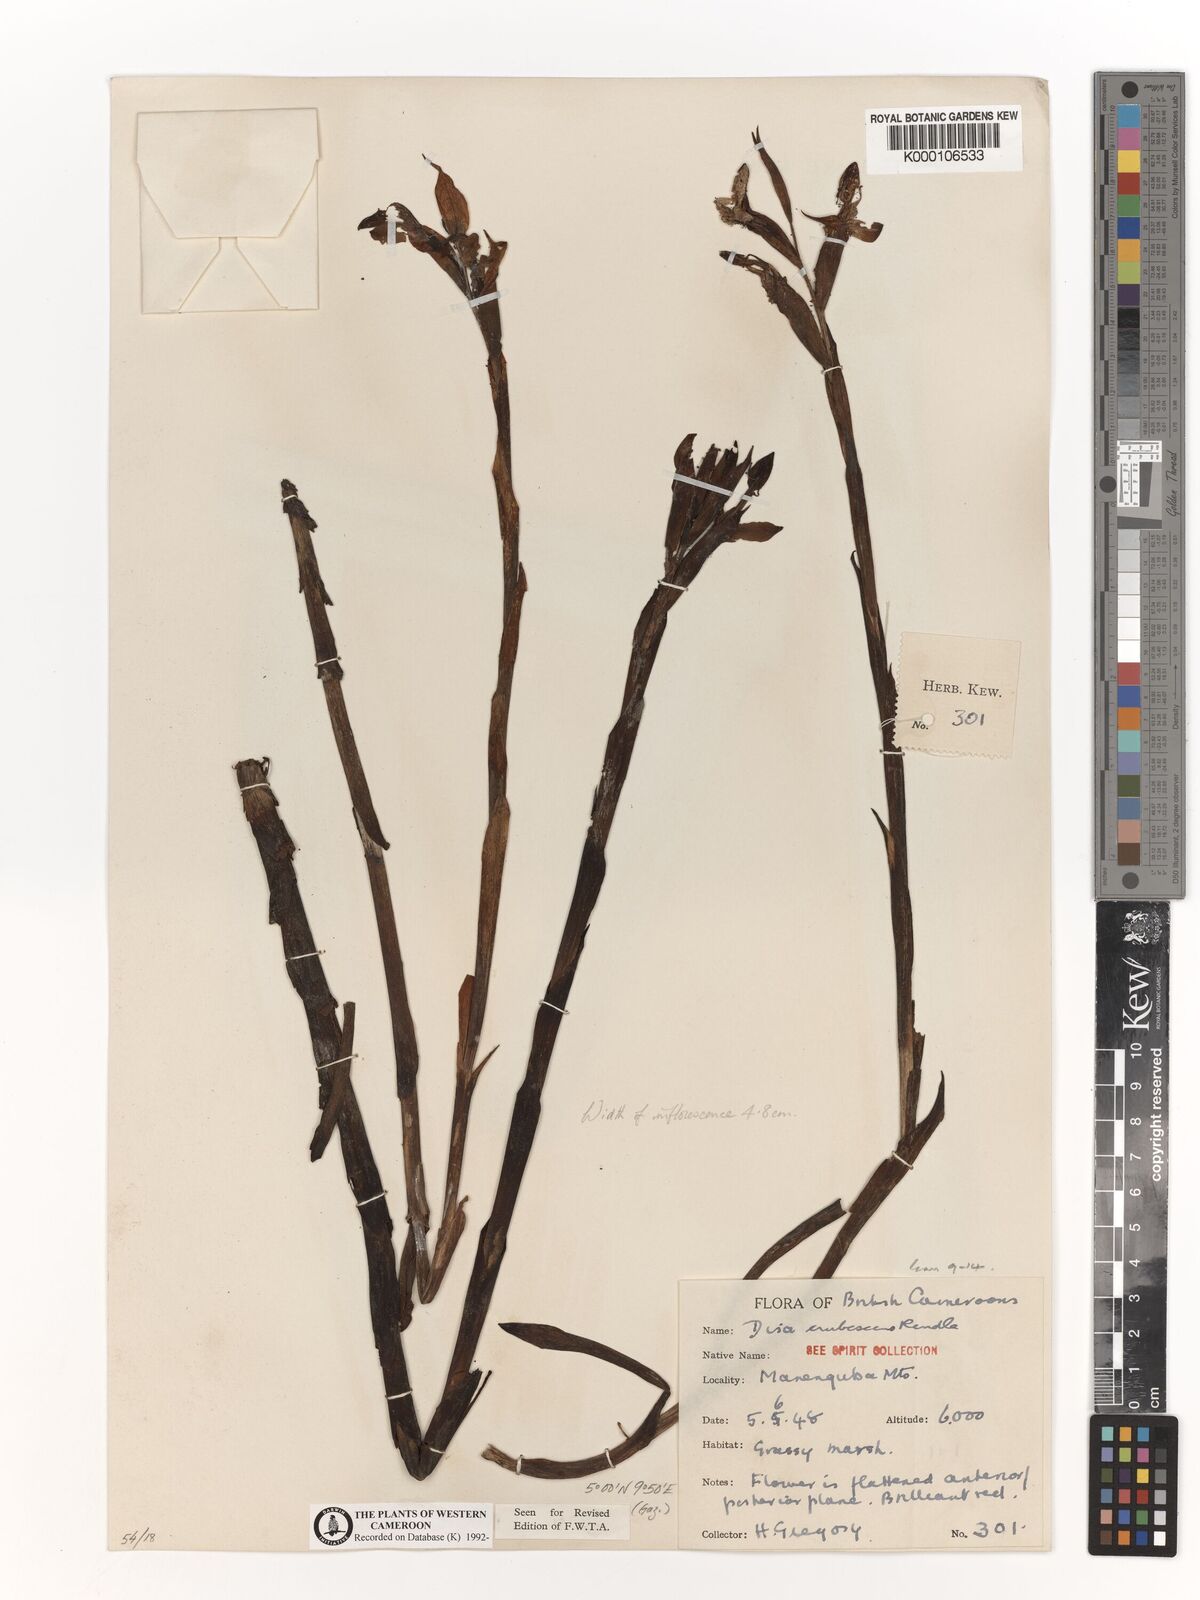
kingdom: Plantae
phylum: Tracheophyta
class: Liliopsida
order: Asparagales
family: Orchidaceae
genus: Disa
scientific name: Disa erubescens
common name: The rose disa
